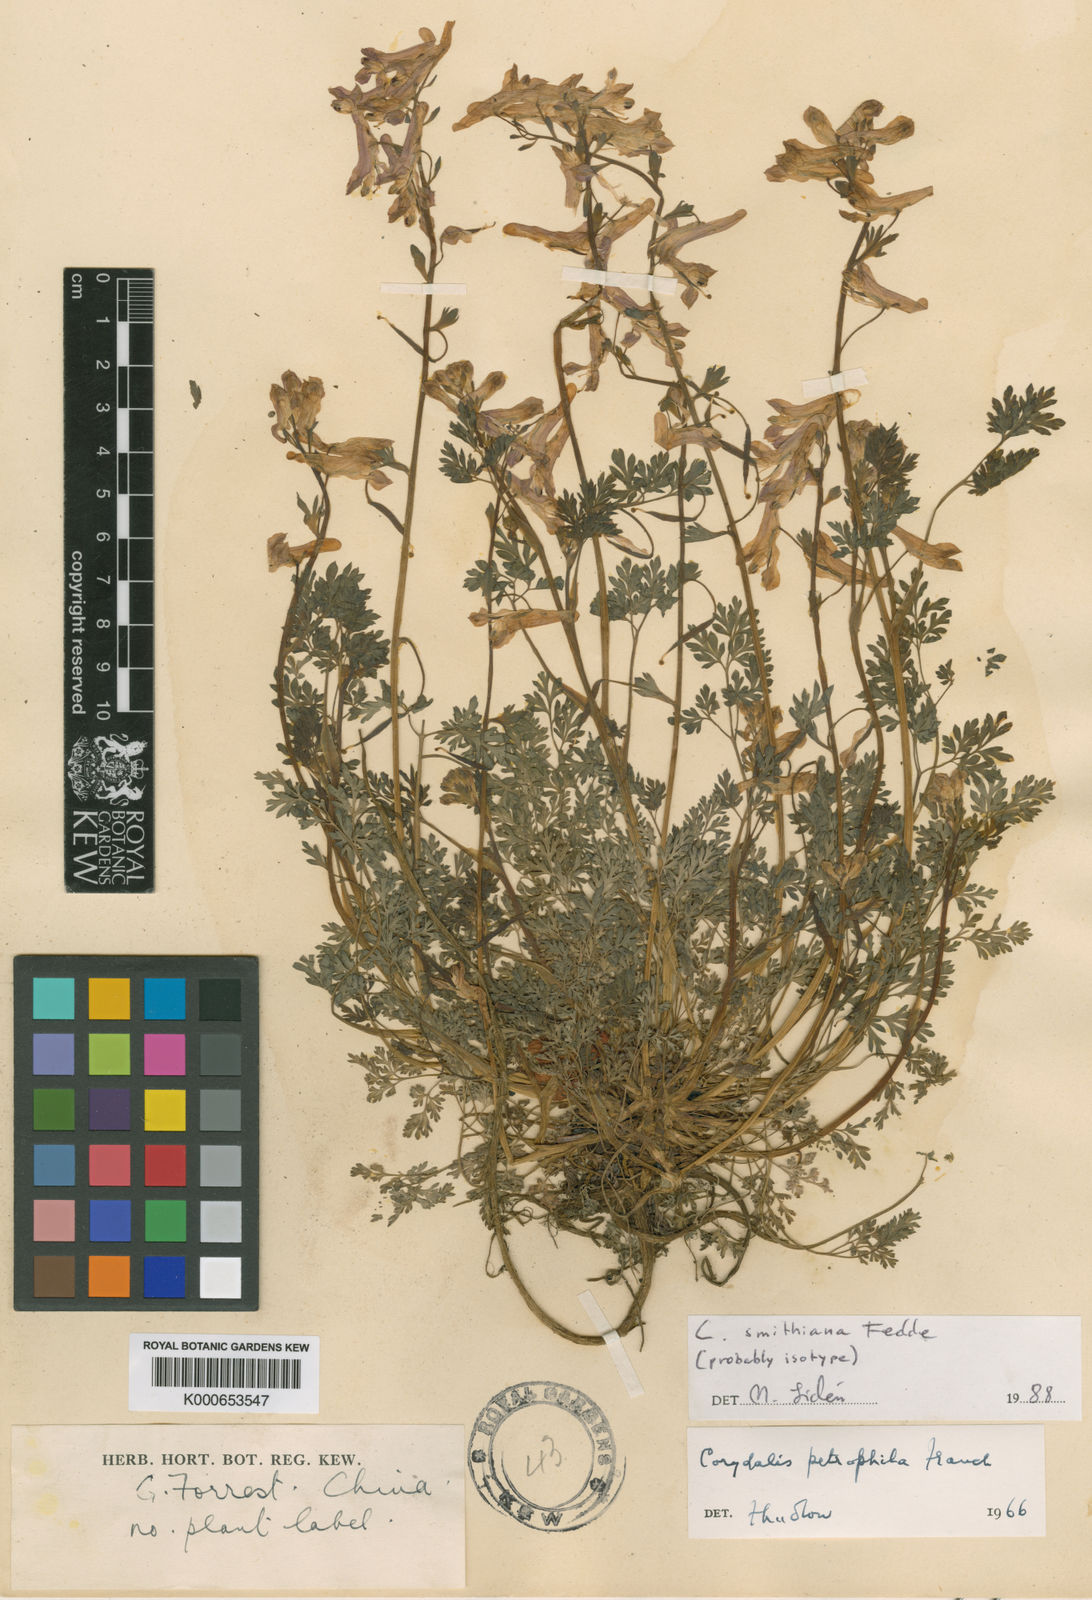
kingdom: Plantae
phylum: Tracheophyta
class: Magnoliopsida
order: Ranunculales
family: Papaveraceae
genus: Corydalis
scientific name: Corydalis smithiana
